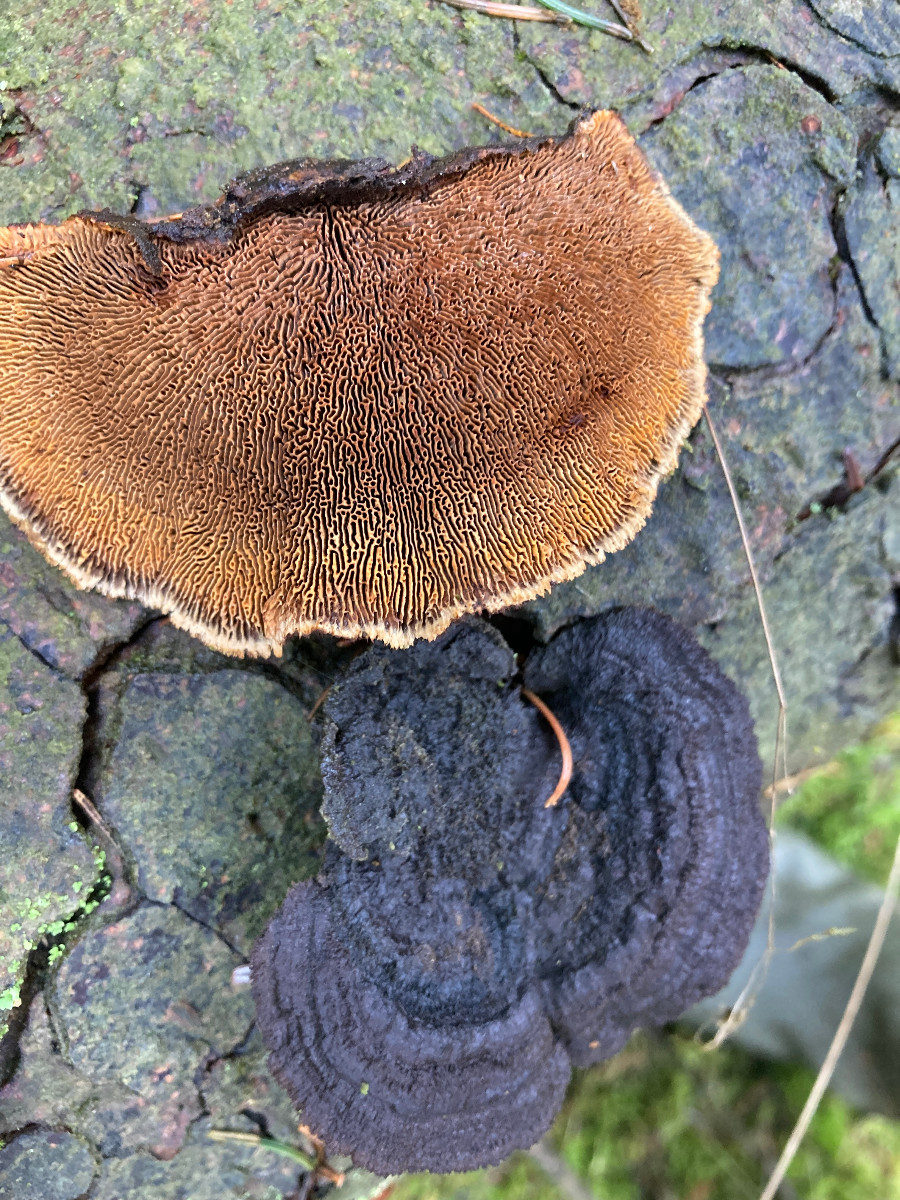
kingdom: Fungi
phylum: Basidiomycota
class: Agaricomycetes
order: Gloeophyllales
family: Gloeophyllaceae
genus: Gloeophyllum
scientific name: Gloeophyllum sepiarium
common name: fyrre-korkhat
